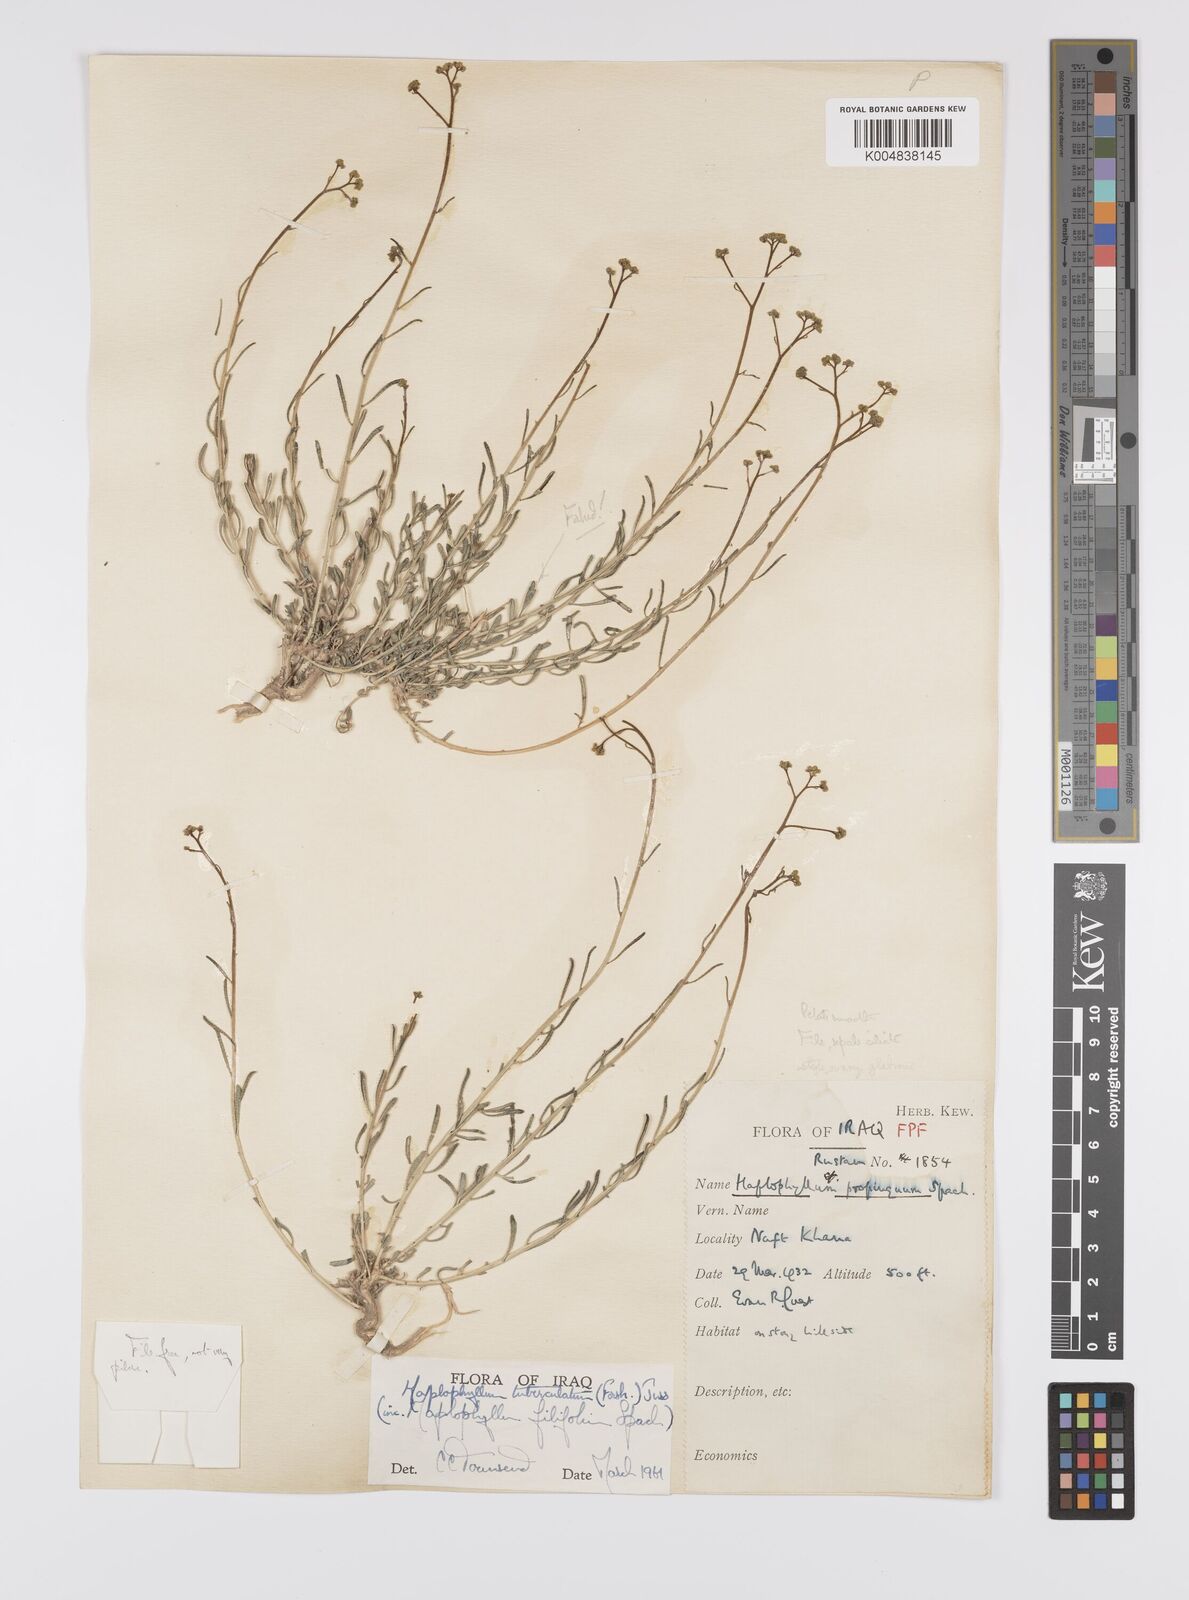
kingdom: Plantae
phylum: Tracheophyta
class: Magnoliopsida
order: Sapindales
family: Rutaceae
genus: Haplophyllum
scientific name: Haplophyllum tuberculatum
